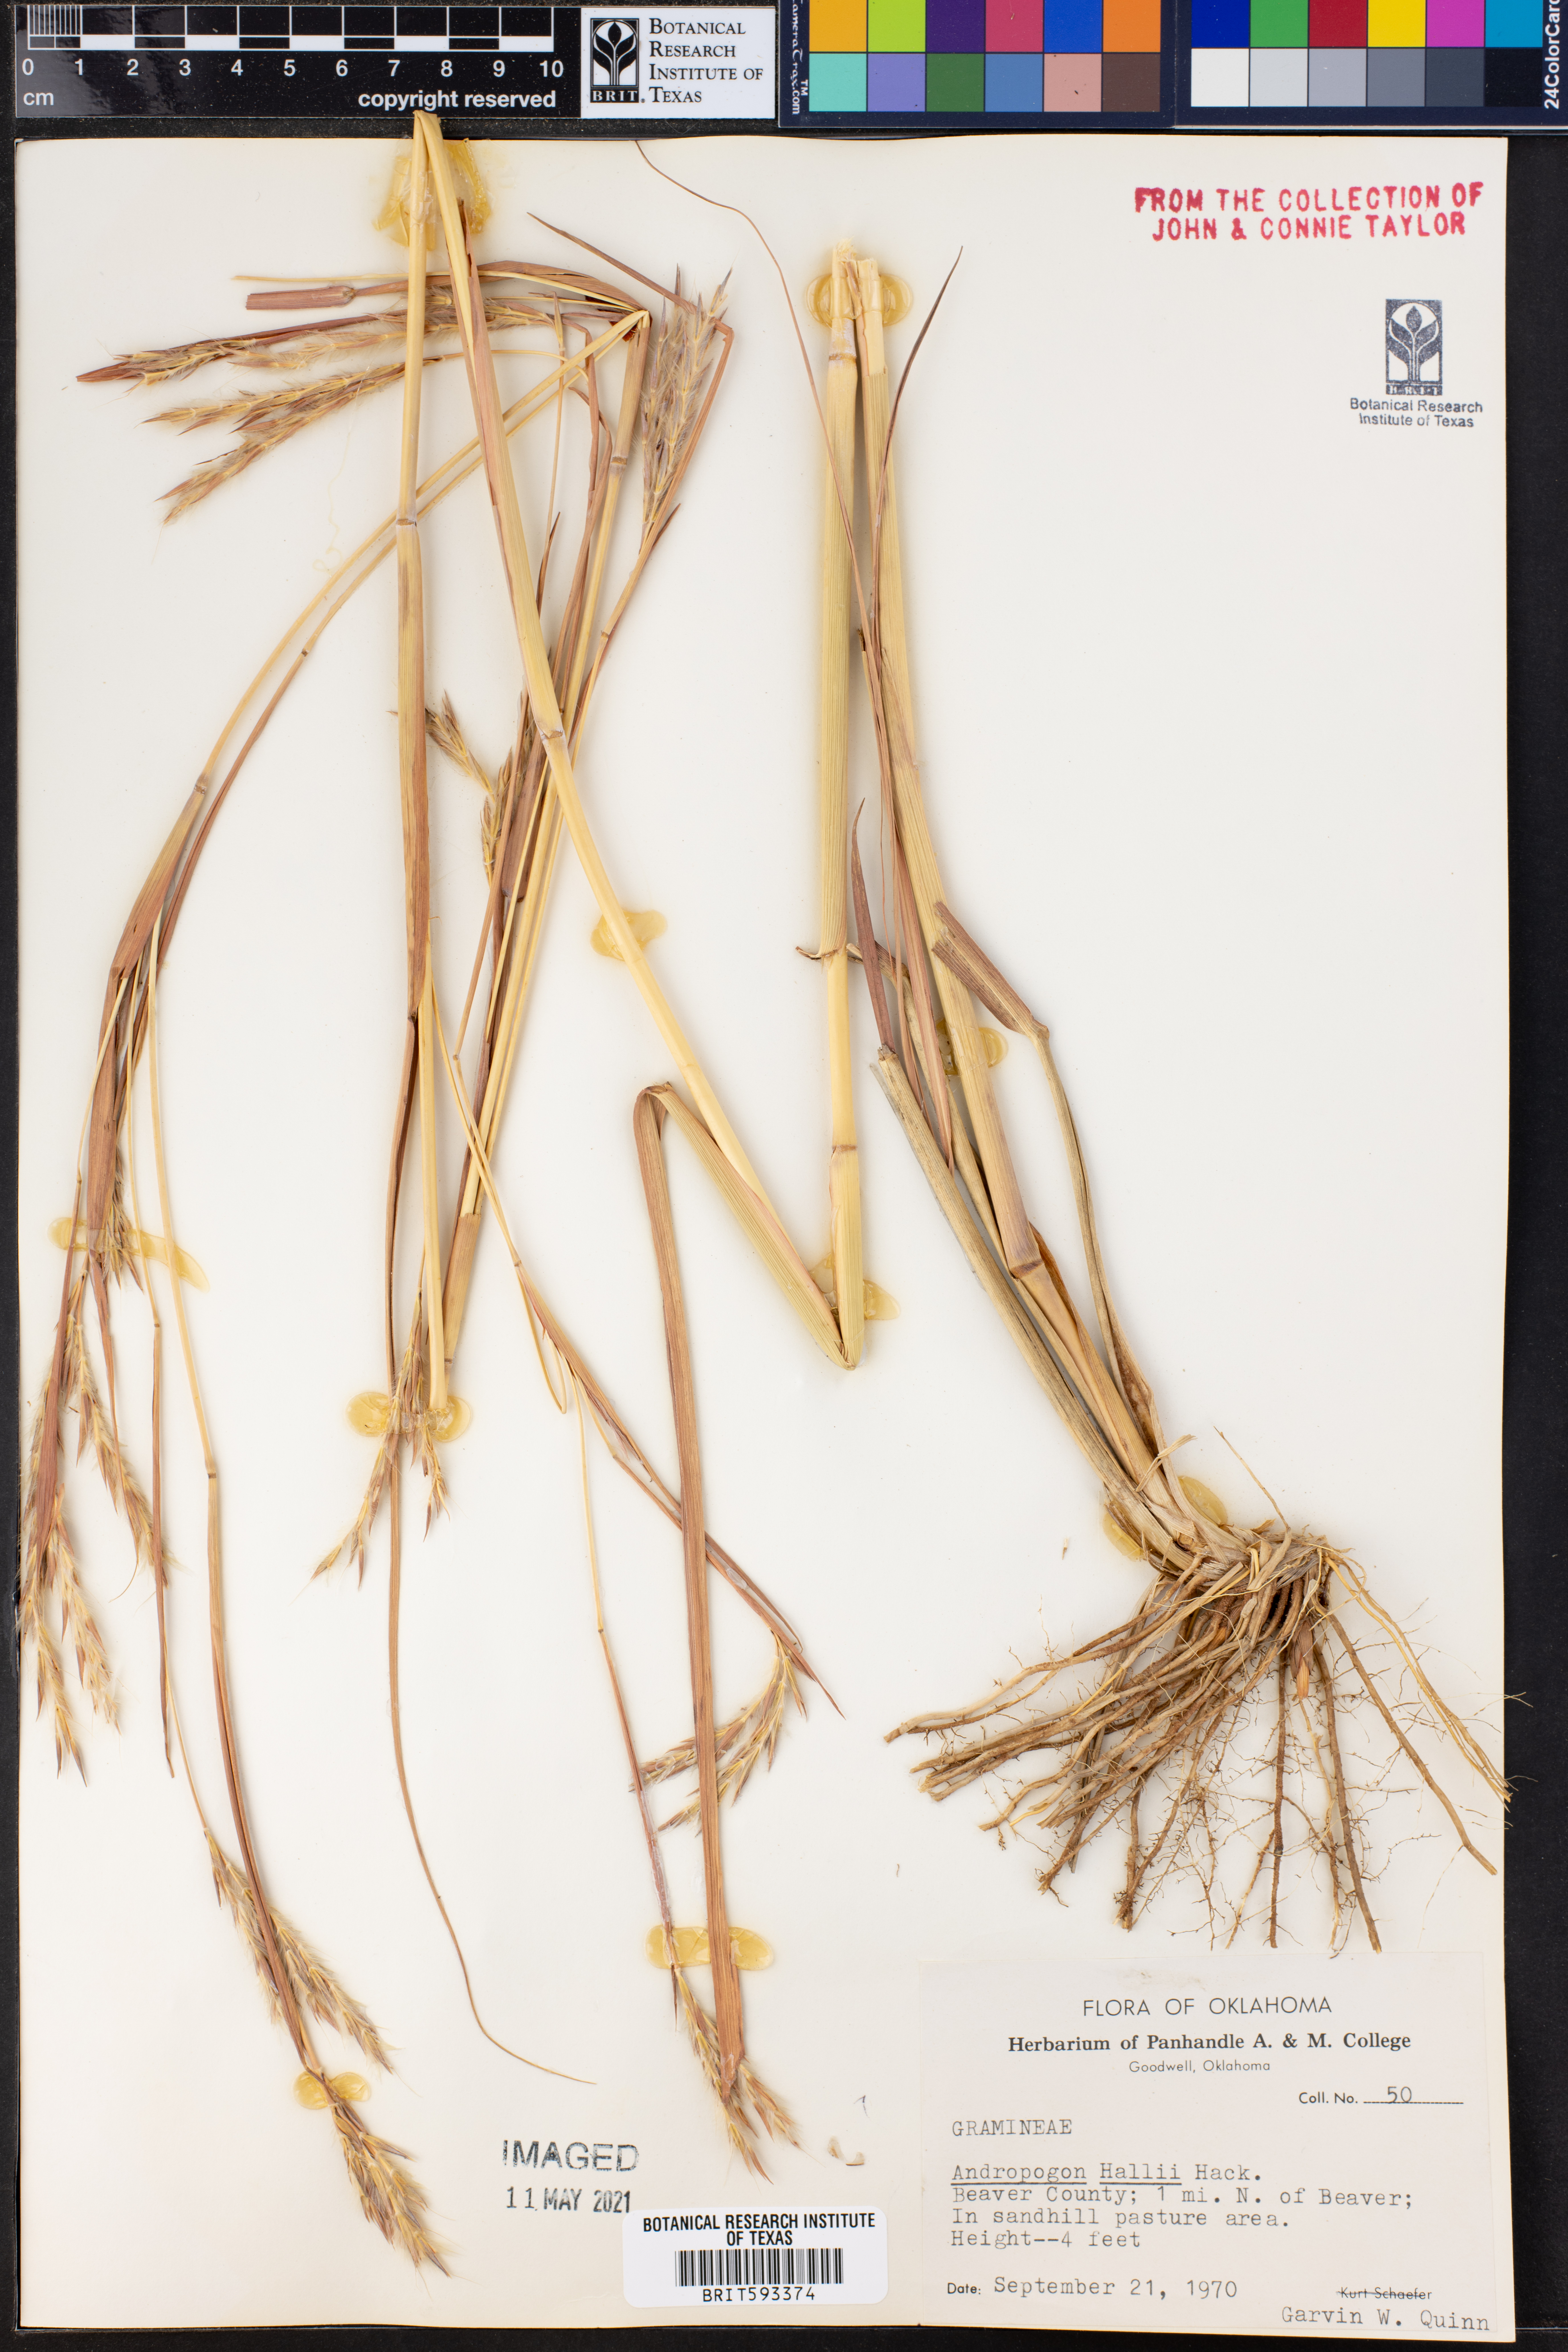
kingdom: Plantae
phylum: Tracheophyta
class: Liliopsida
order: Poales
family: Poaceae
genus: Andropogon
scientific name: Andropogon hallii
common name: Sand bluestem
